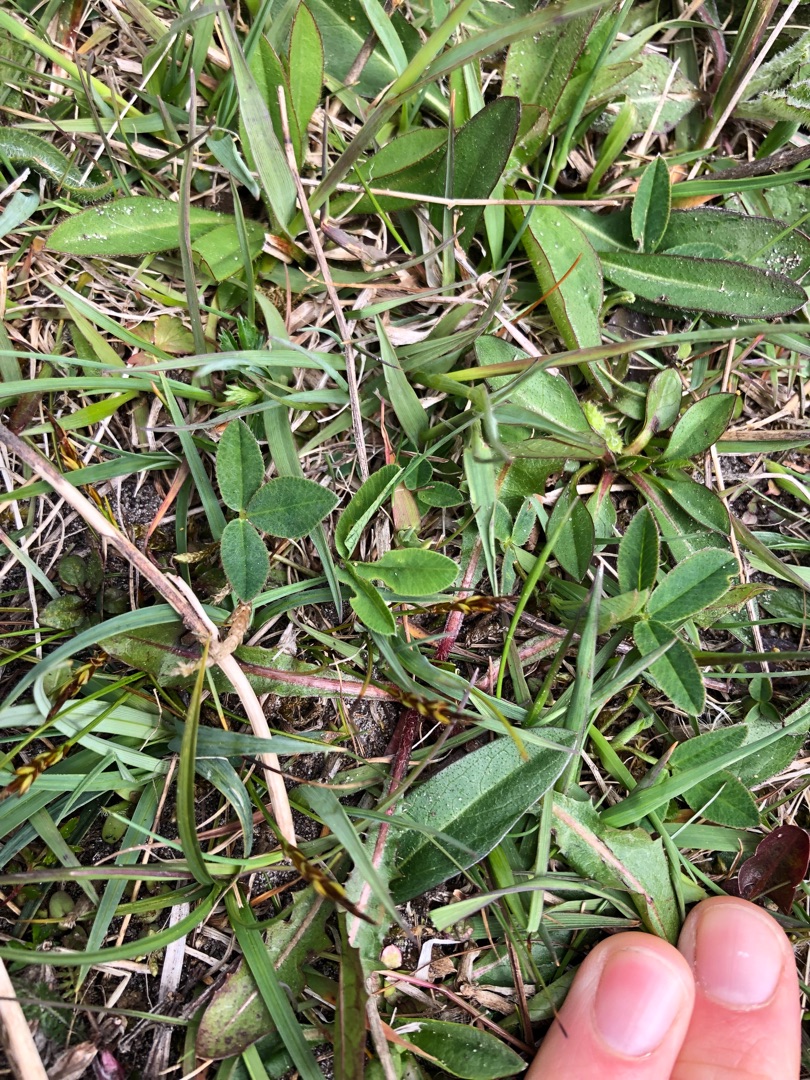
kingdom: Plantae
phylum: Tracheophyta
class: Liliopsida
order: Poales
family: Cyperaceae
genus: Carex
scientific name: Carex pulicaris
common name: Loppe-star
